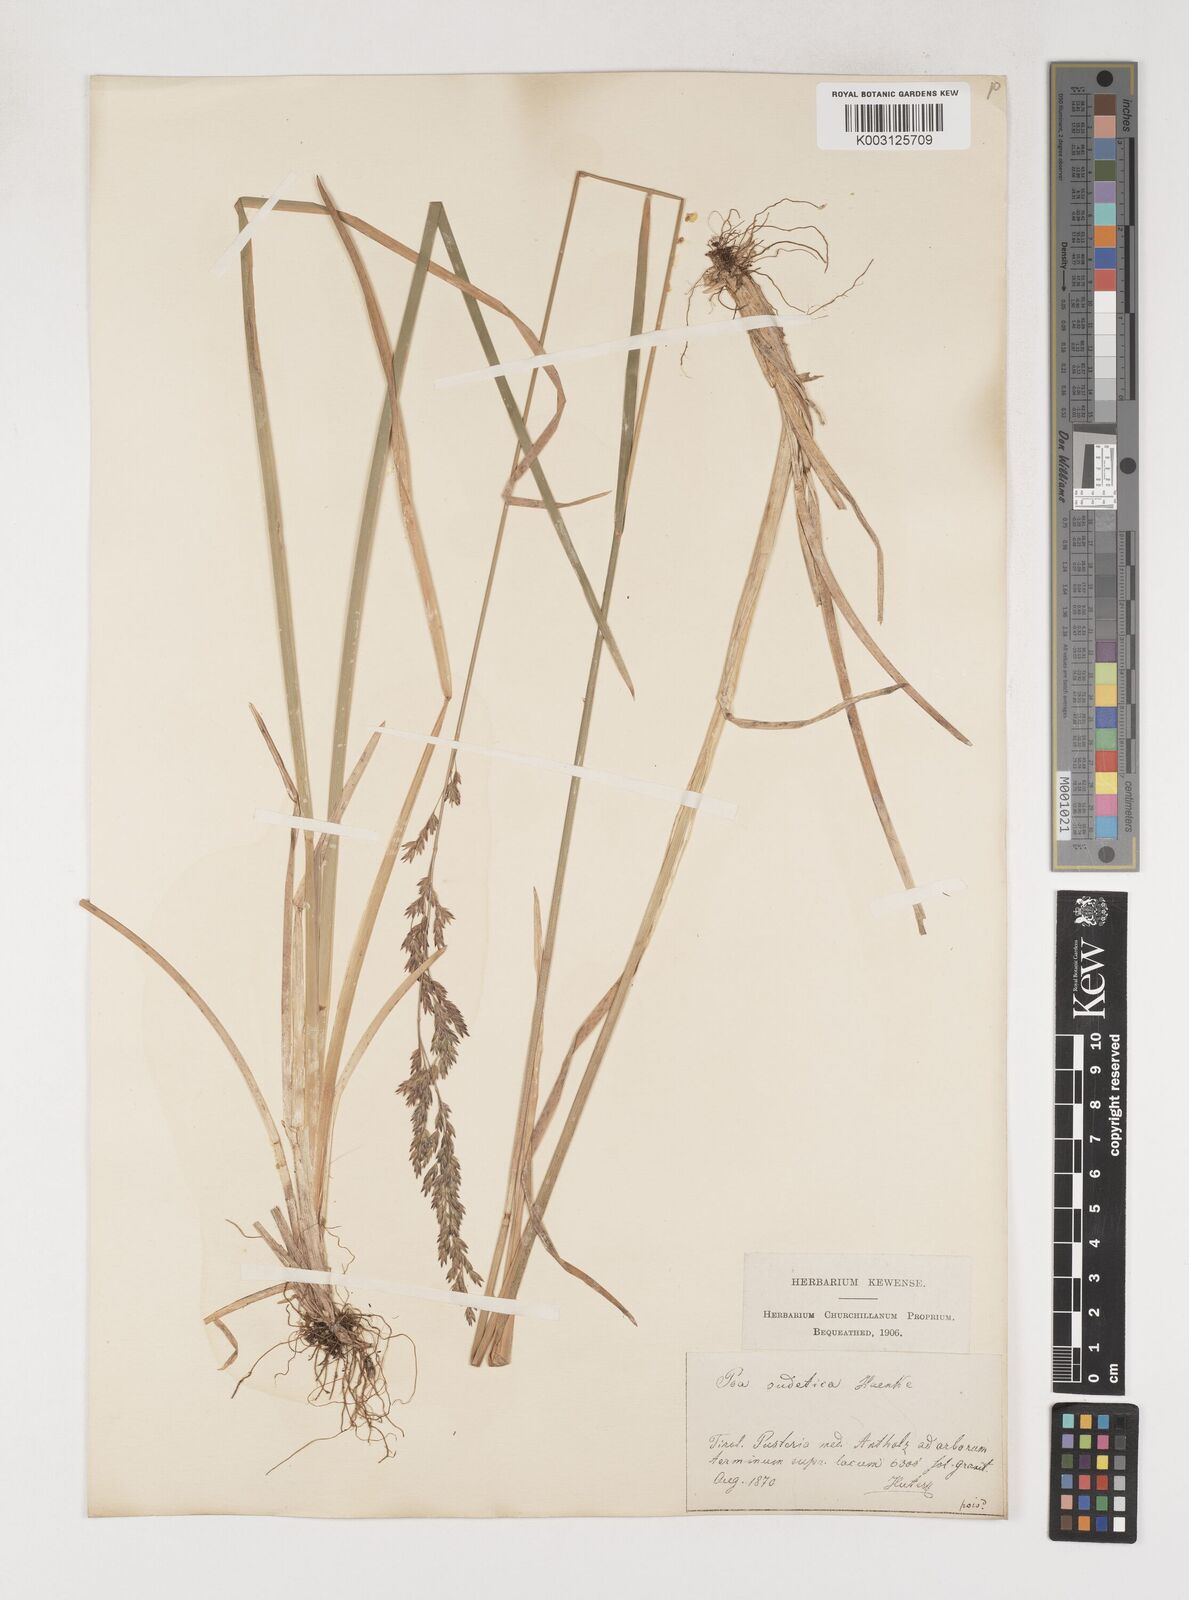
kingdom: Plantae
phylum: Tracheophyta
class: Liliopsida
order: Poales
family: Poaceae
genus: Poa
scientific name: Poa chaixii
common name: Broad-leaved meadow-grass
